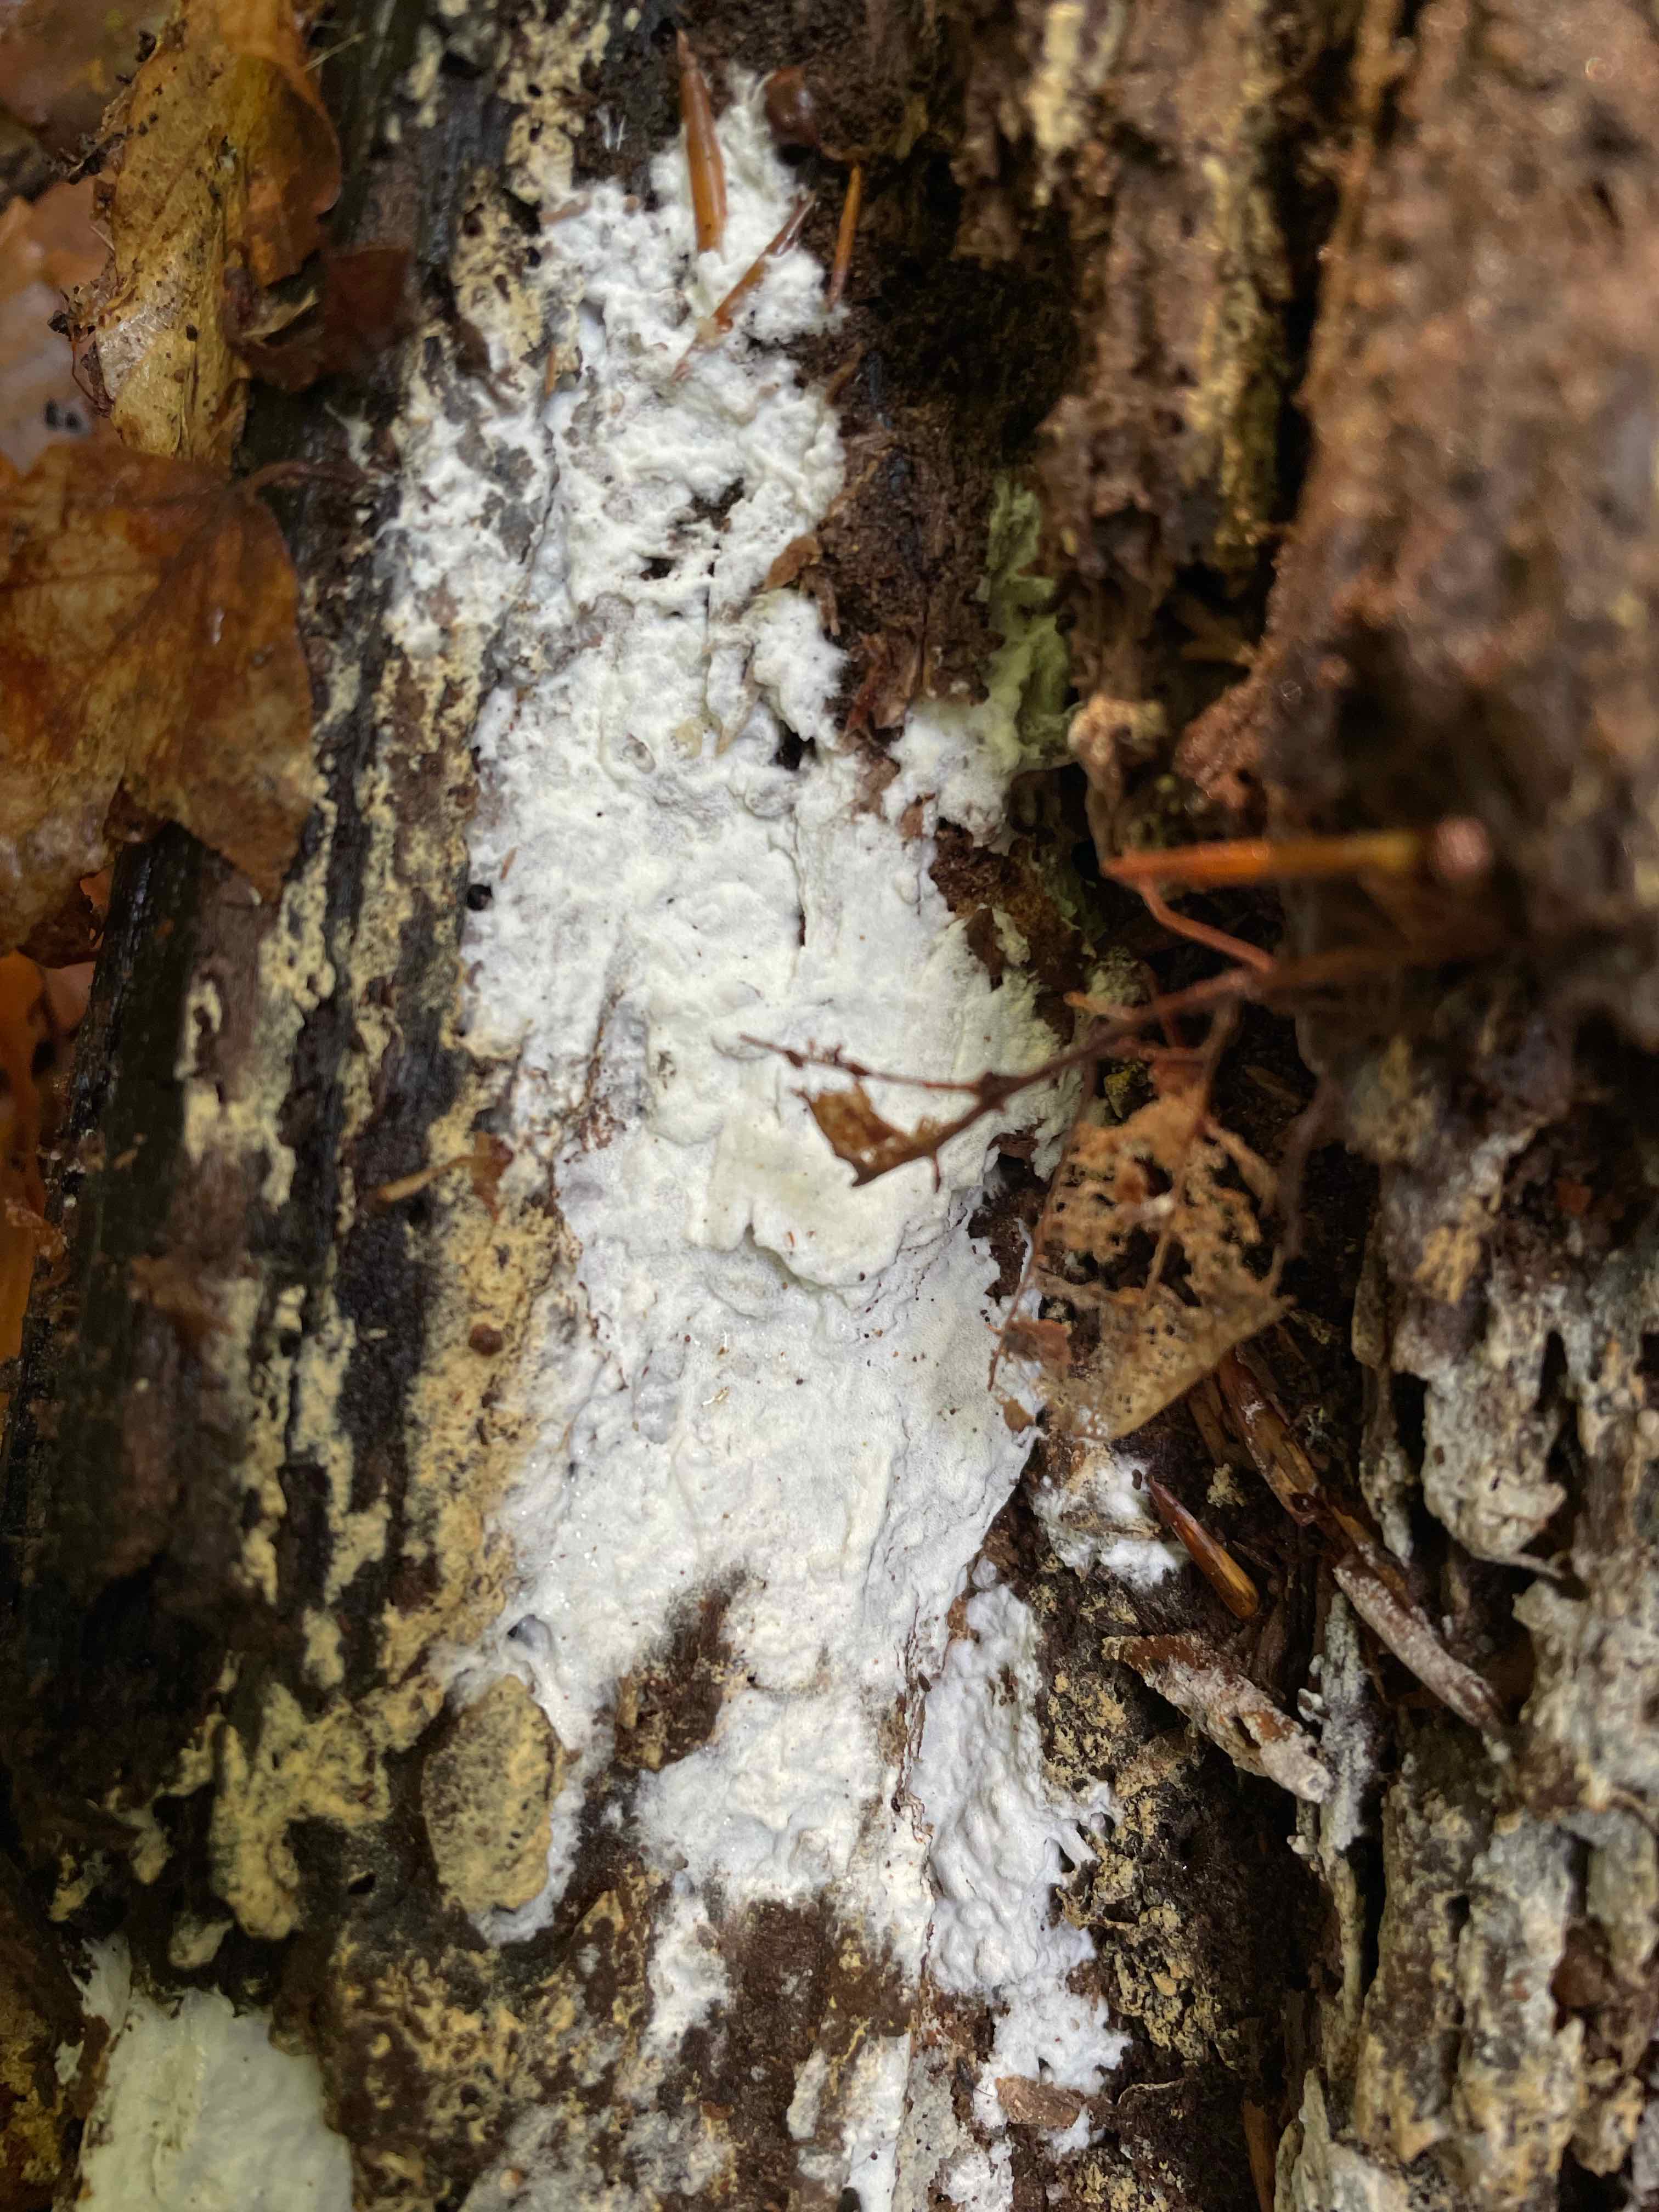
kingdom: Fungi
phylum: Basidiomycota
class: Agaricomycetes
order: Corticiales
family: Corticiaceae
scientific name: Corticiaceae
